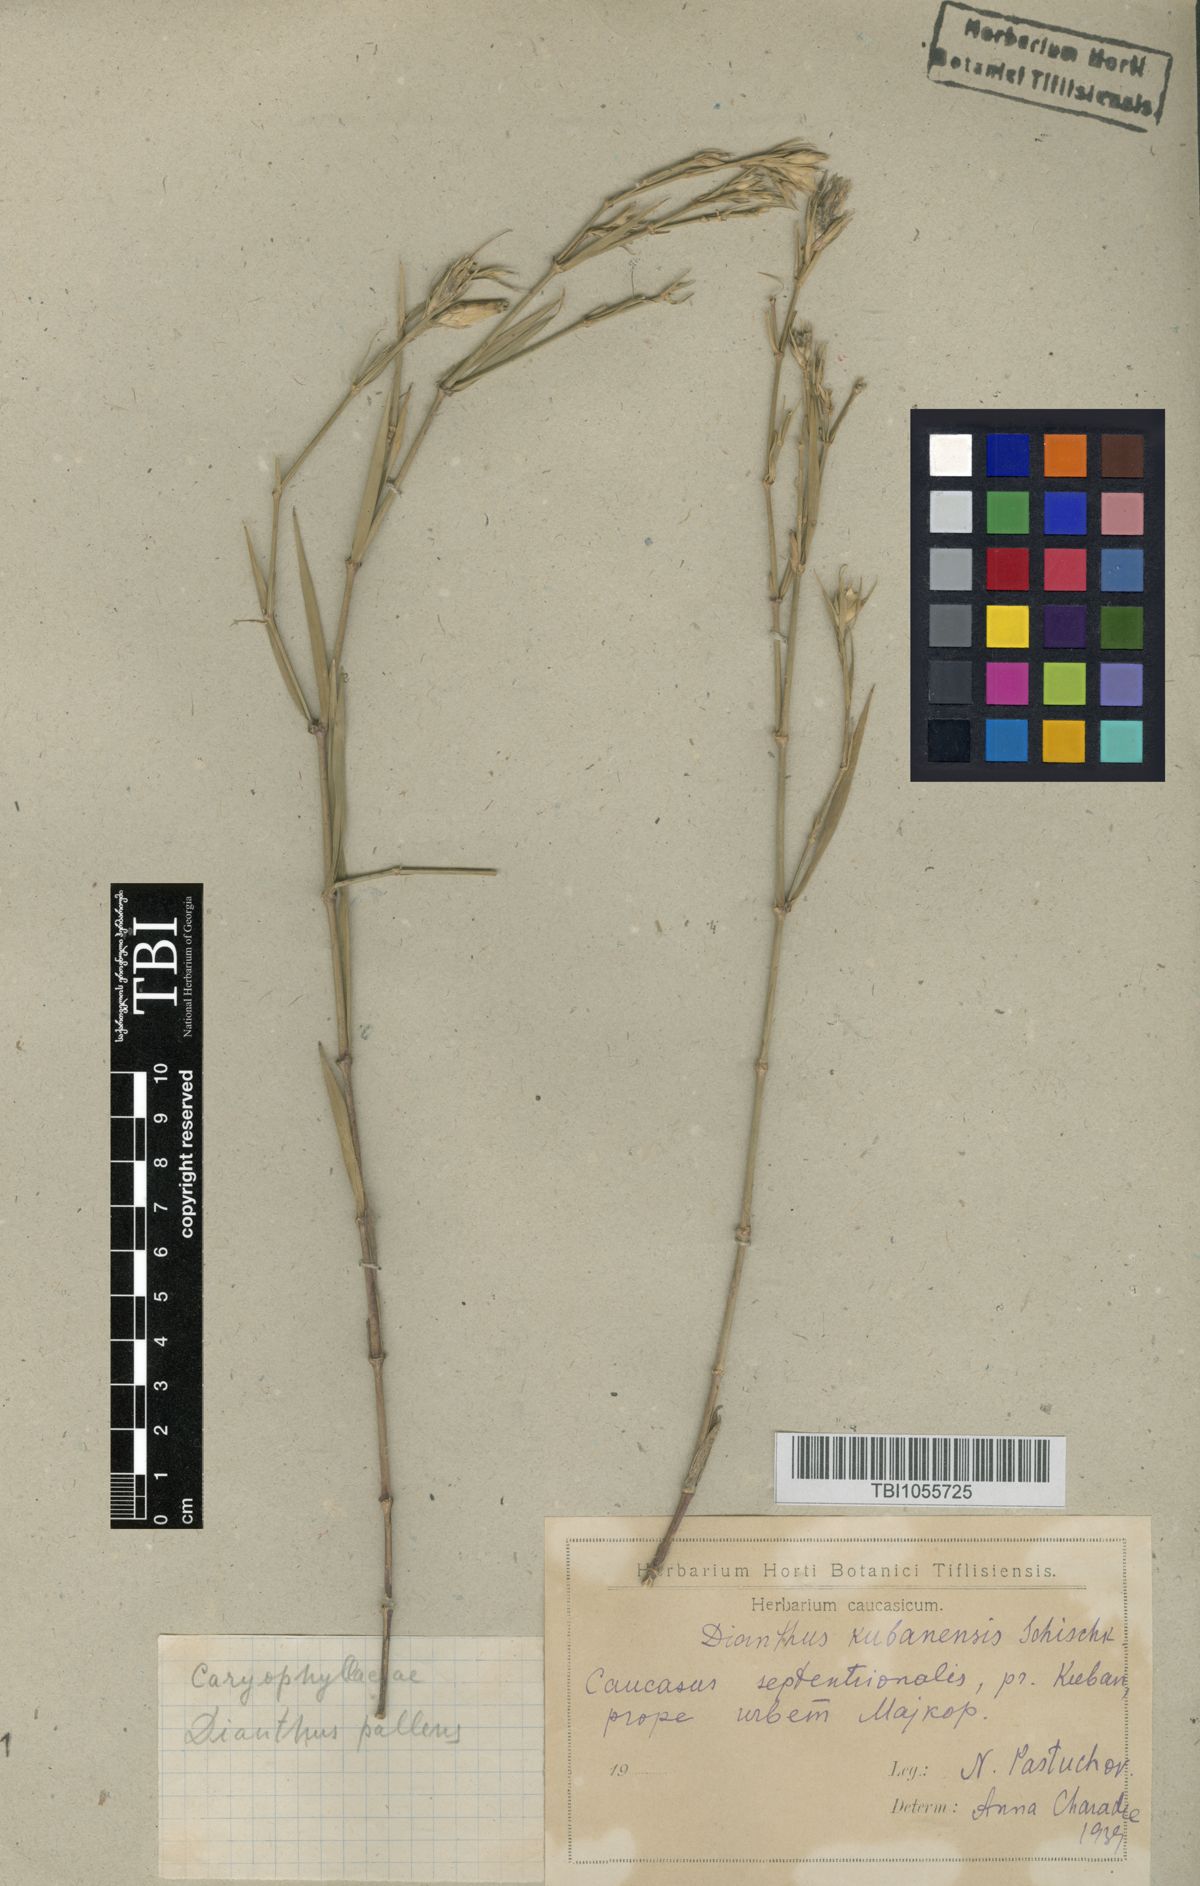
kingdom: Plantae
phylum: Tracheophyta
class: Magnoliopsida
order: Caryophyllales
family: Caryophyllaceae
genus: Dianthus
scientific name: Dianthus
